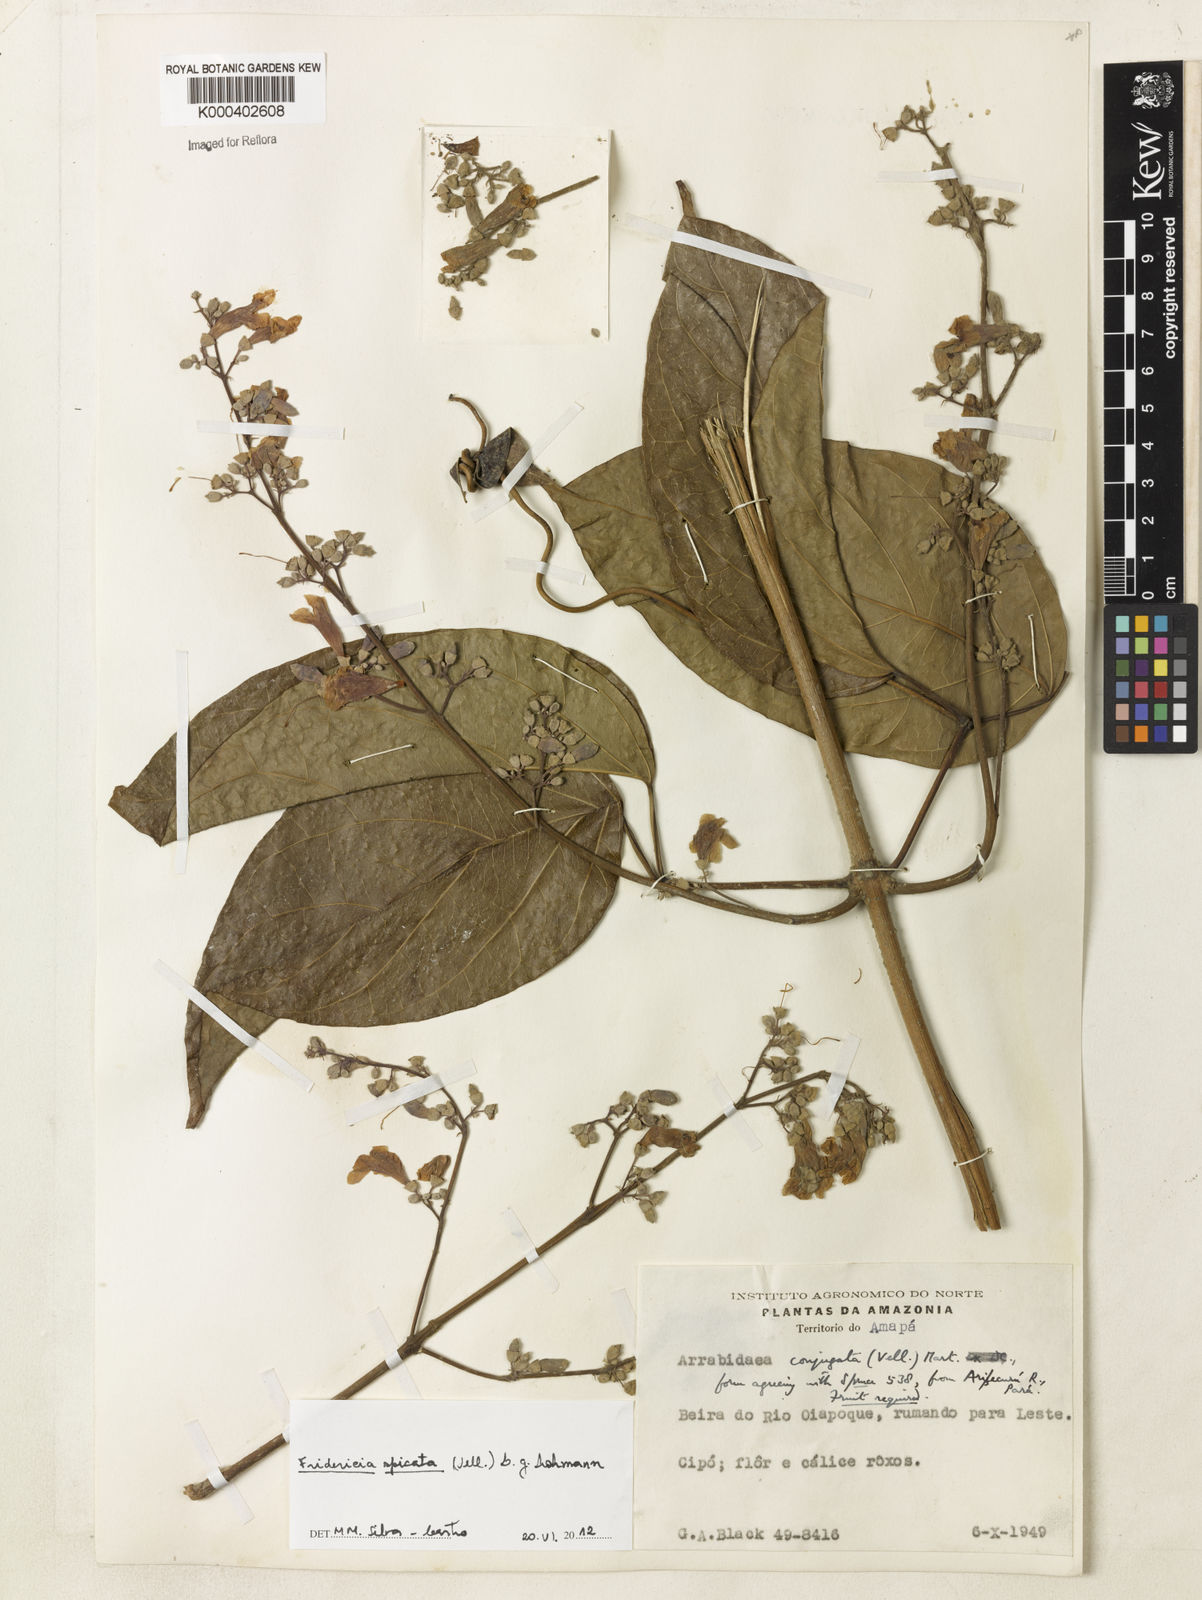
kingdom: Plantae
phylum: Tracheophyta
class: Magnoliopsida
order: Lamiales
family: Bignoniaceae
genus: Fridericia
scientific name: Fridericia spicata
